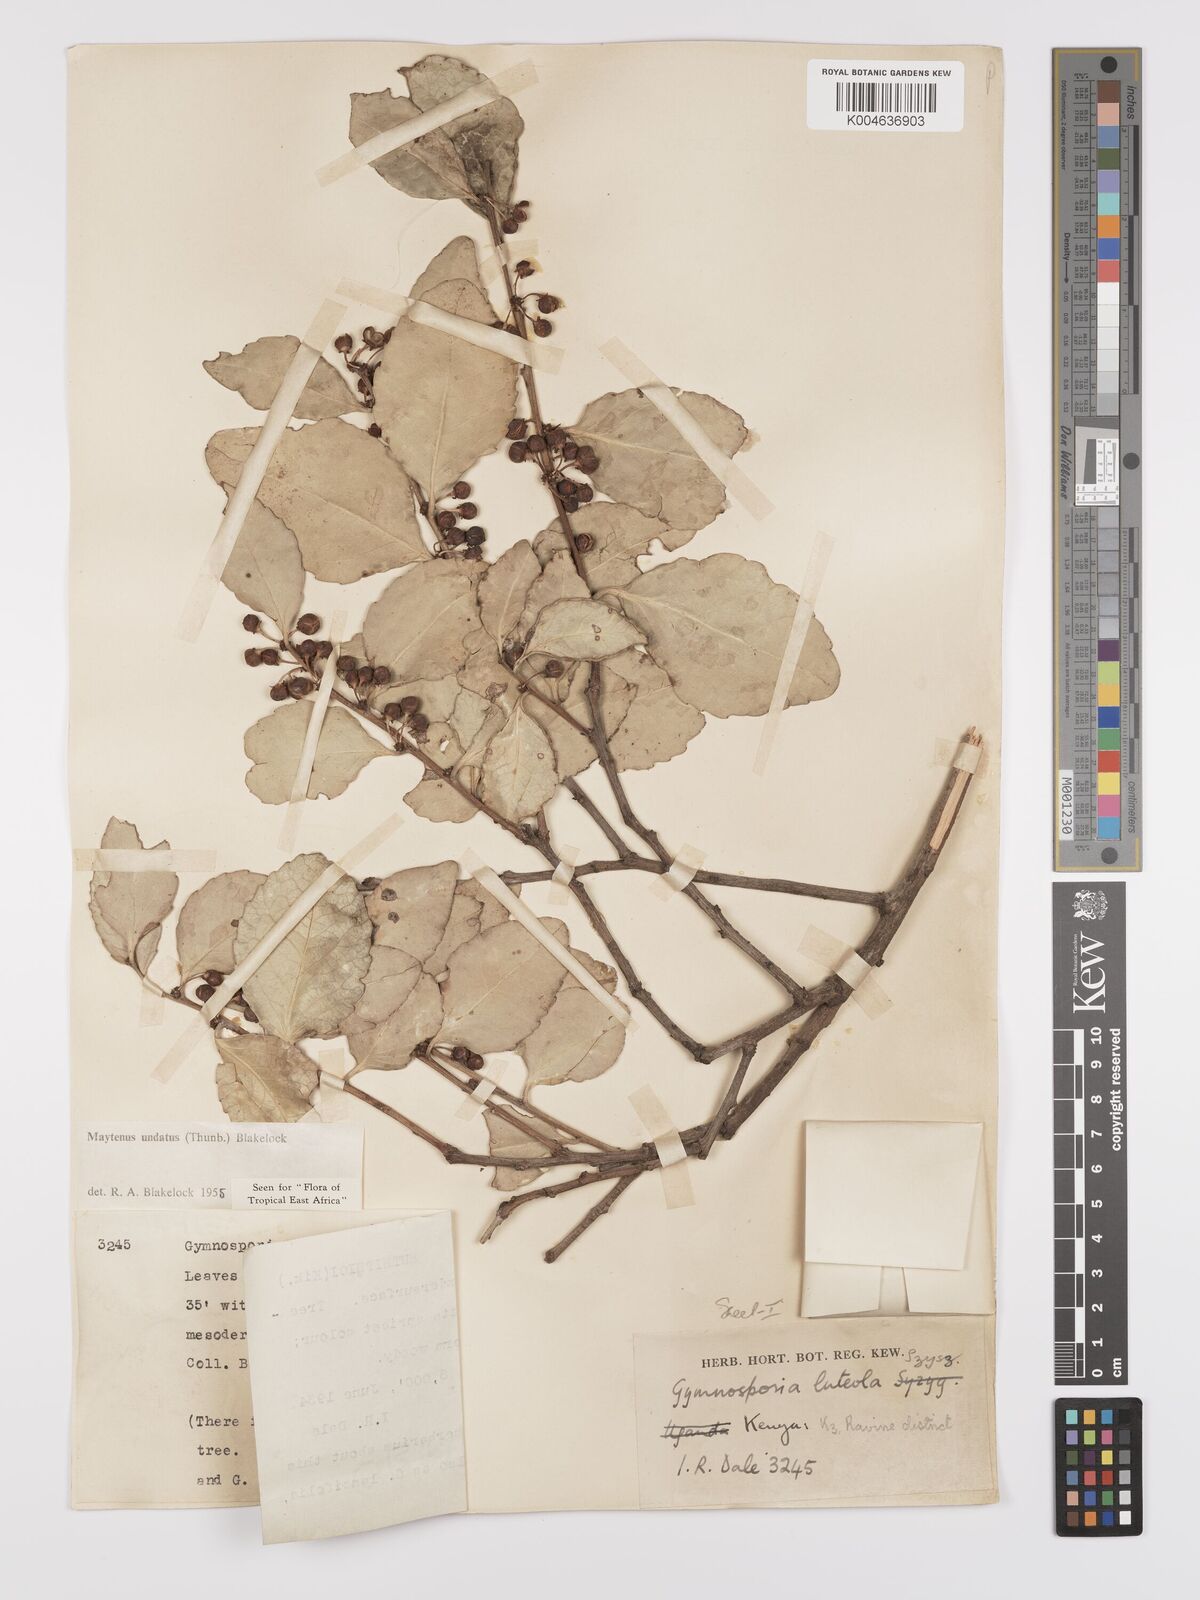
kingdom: Plantae
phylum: Tracheophyta
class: Magnoliopsida
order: Celastrales
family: Celastraceae
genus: Gymnosporia
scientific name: Gymnosporia undata
